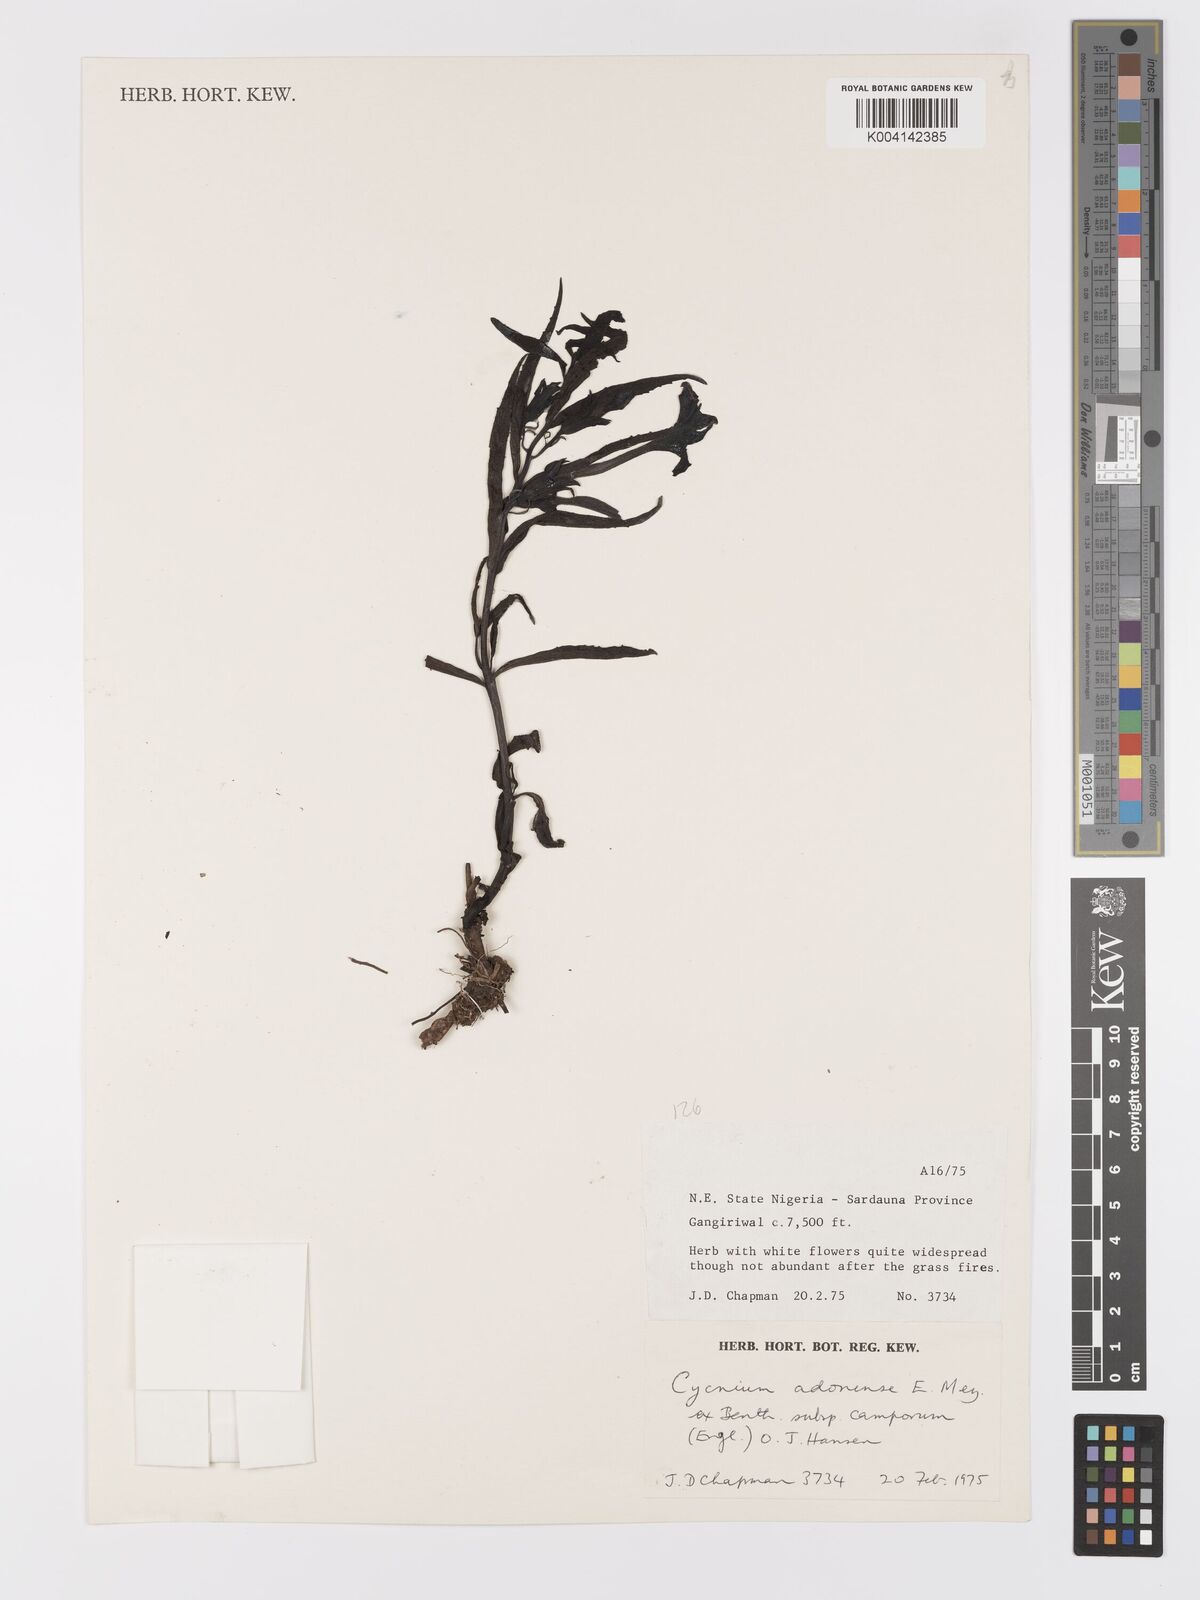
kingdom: Plantae
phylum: Tracheophyta
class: Magnoliopsida
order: Lamiales
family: Orobanchaceae
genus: Cycnium
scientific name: Cycnium adoense
